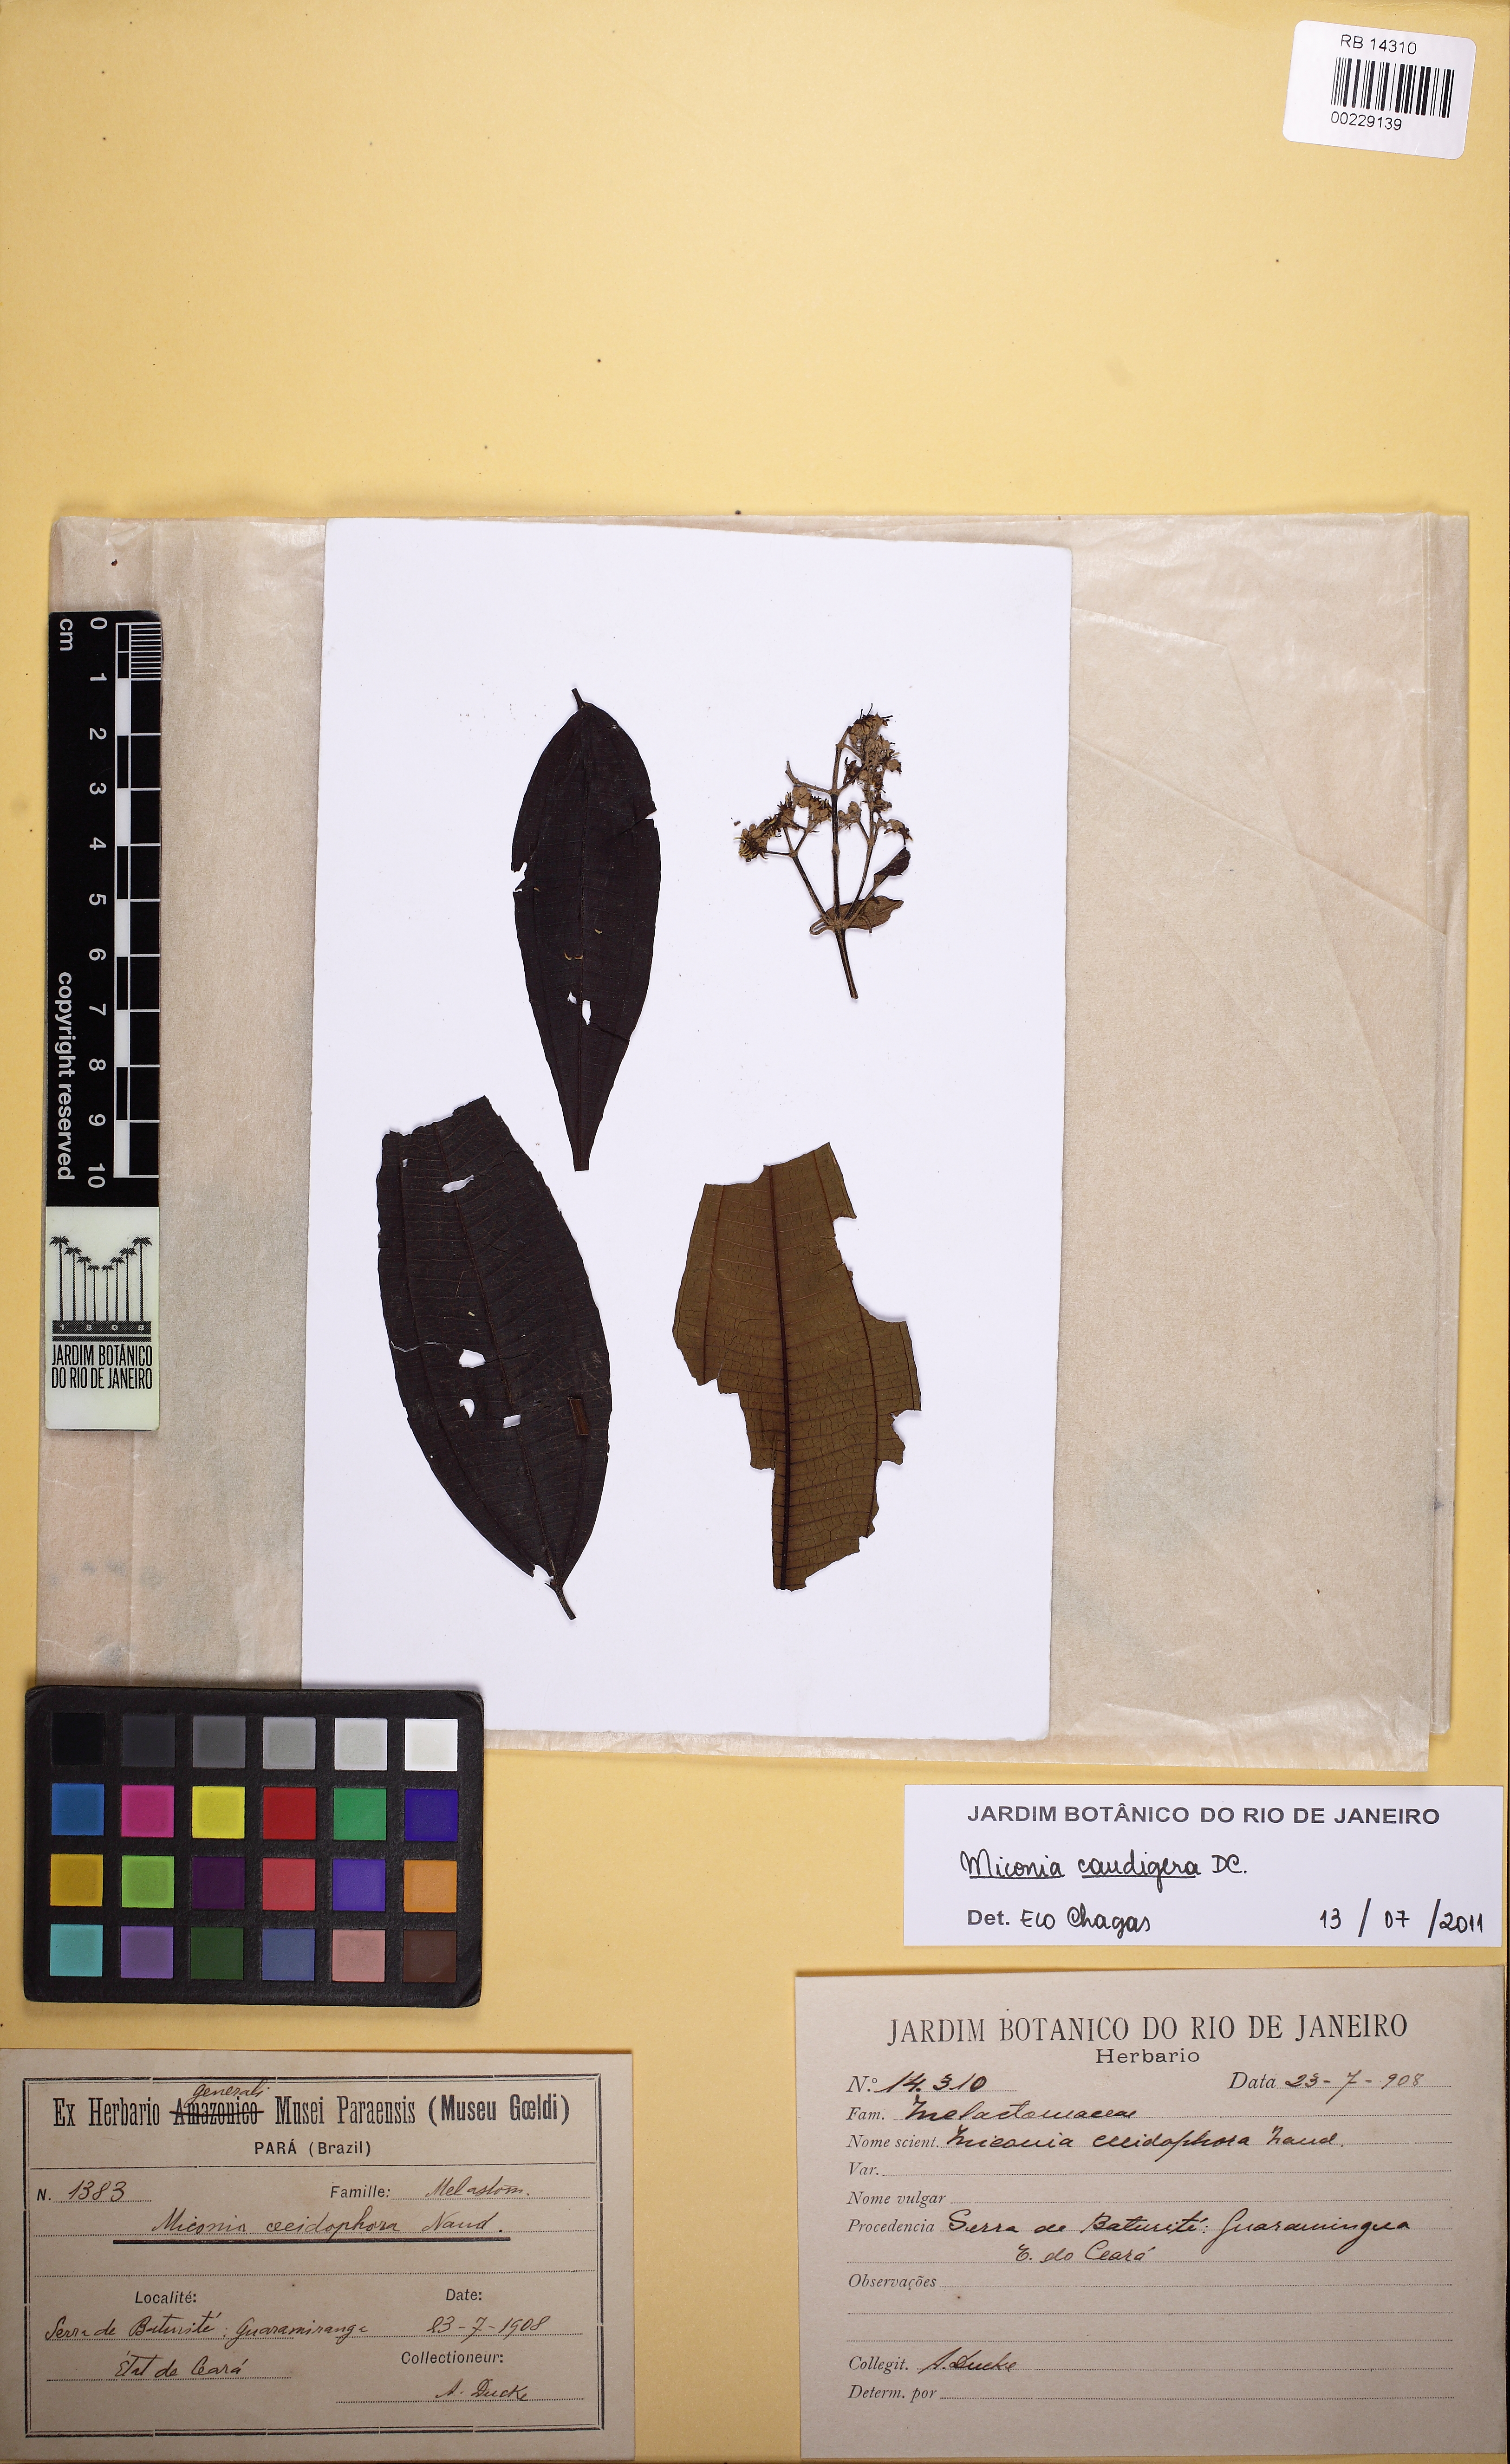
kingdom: Plantae
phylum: Tracheophyta
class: Magnoliopsida
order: Myrtales
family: Melastomataceae
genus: Miconia
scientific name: Miconia nordestina
